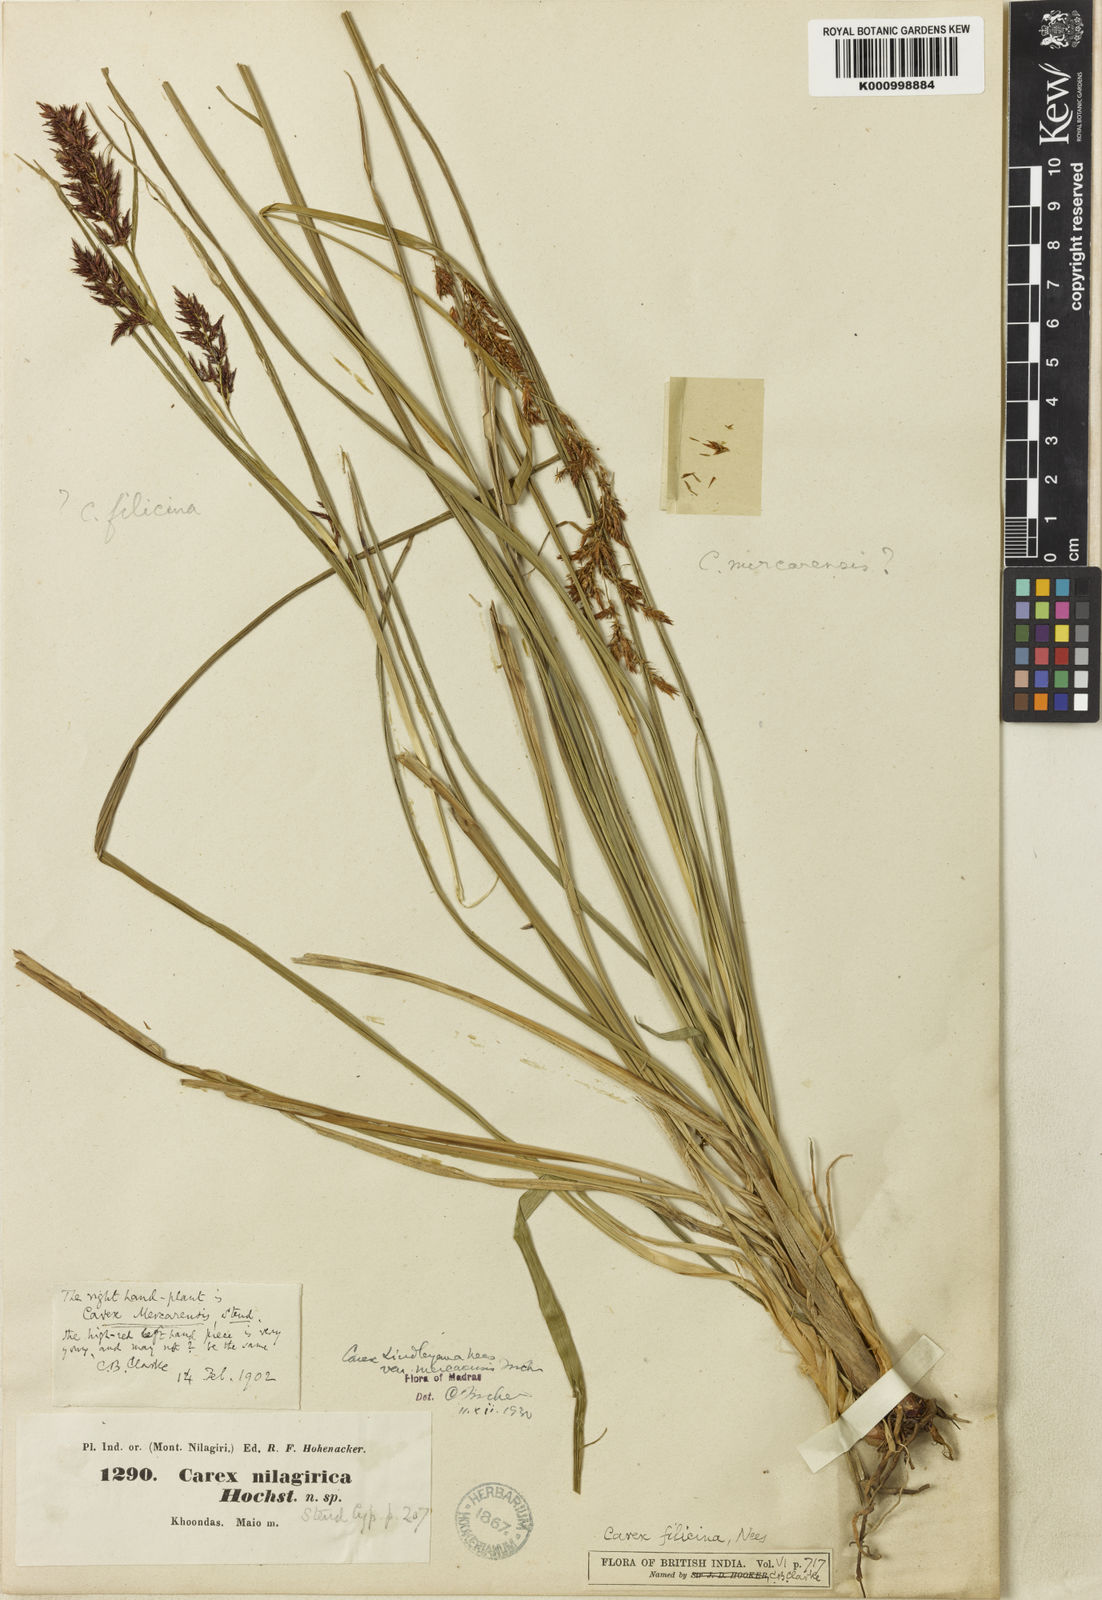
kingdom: Plantae
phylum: Tracheophyta
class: Liliopsida
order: Poales
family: Cyperaceae
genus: Carex
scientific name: Carex filicina
